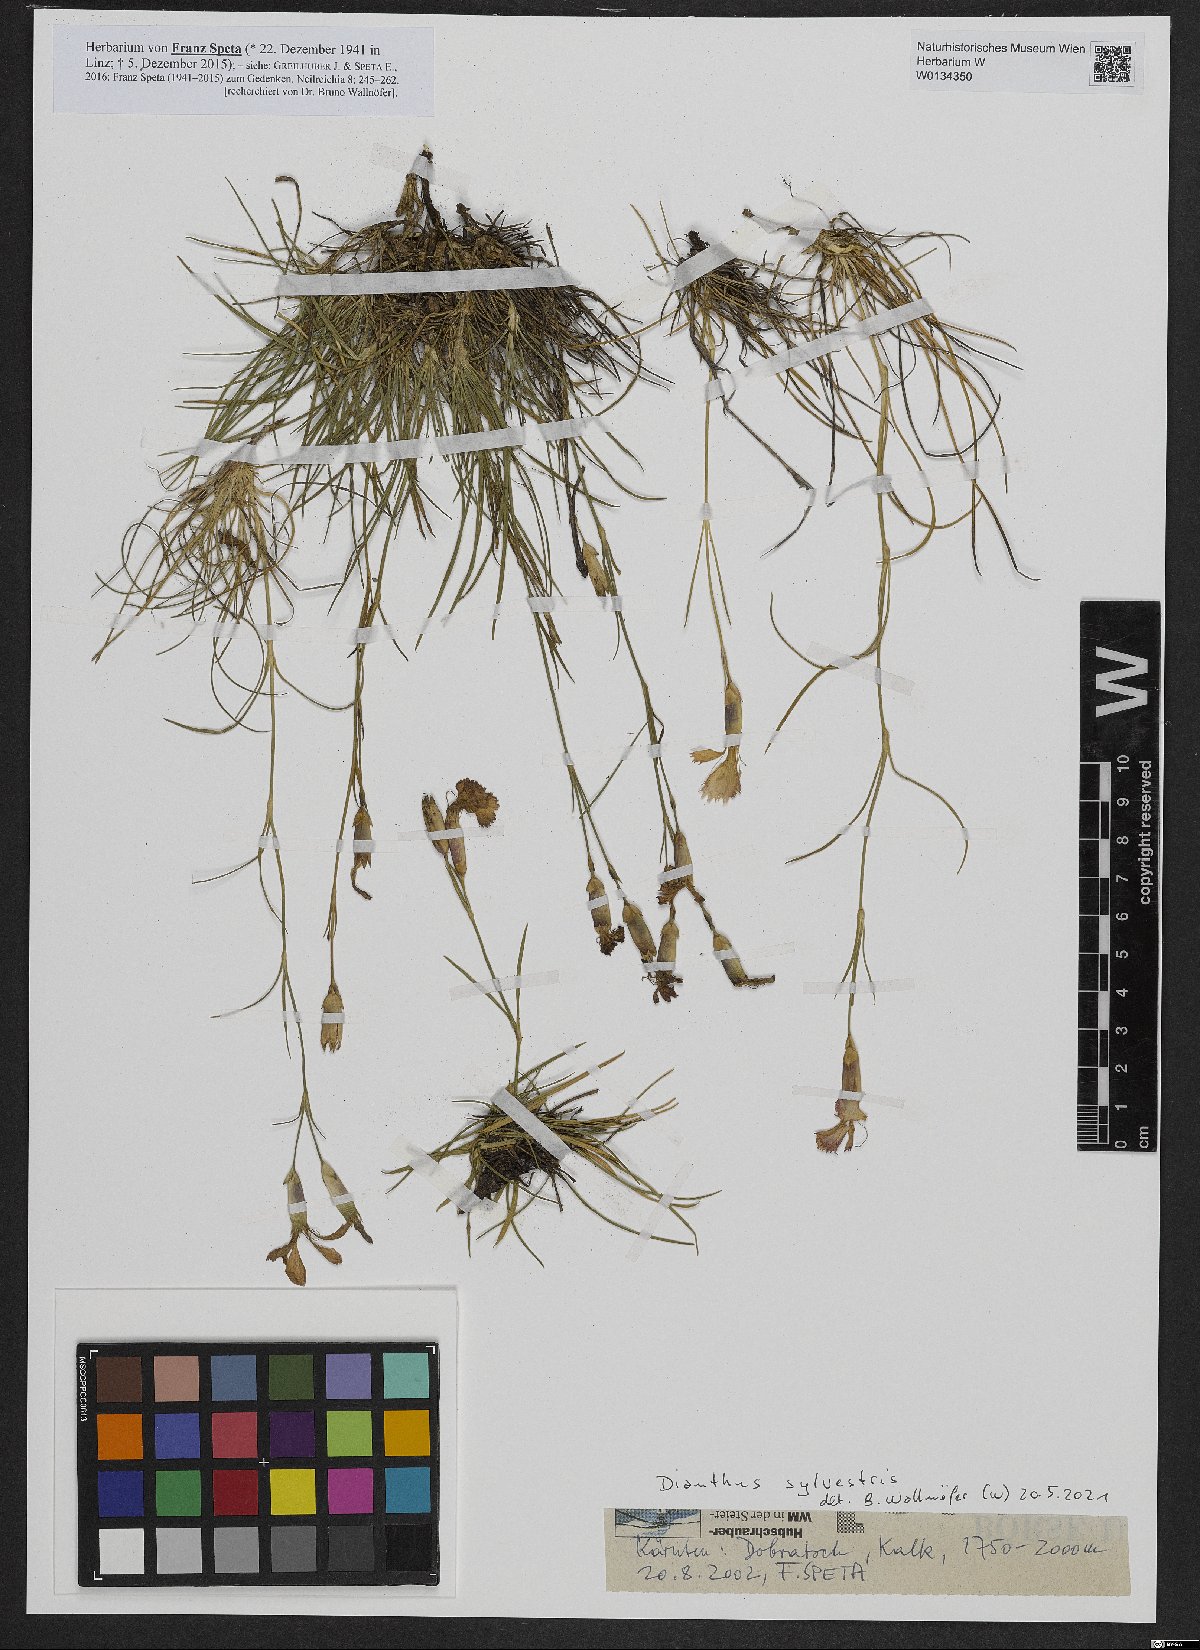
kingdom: Plantae
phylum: Tracheophyta
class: Magnoliopsida
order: Caryophyllales
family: Caryophyllaceae
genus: Dianthus
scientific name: Dianthus sylvestris
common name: Wood pink
